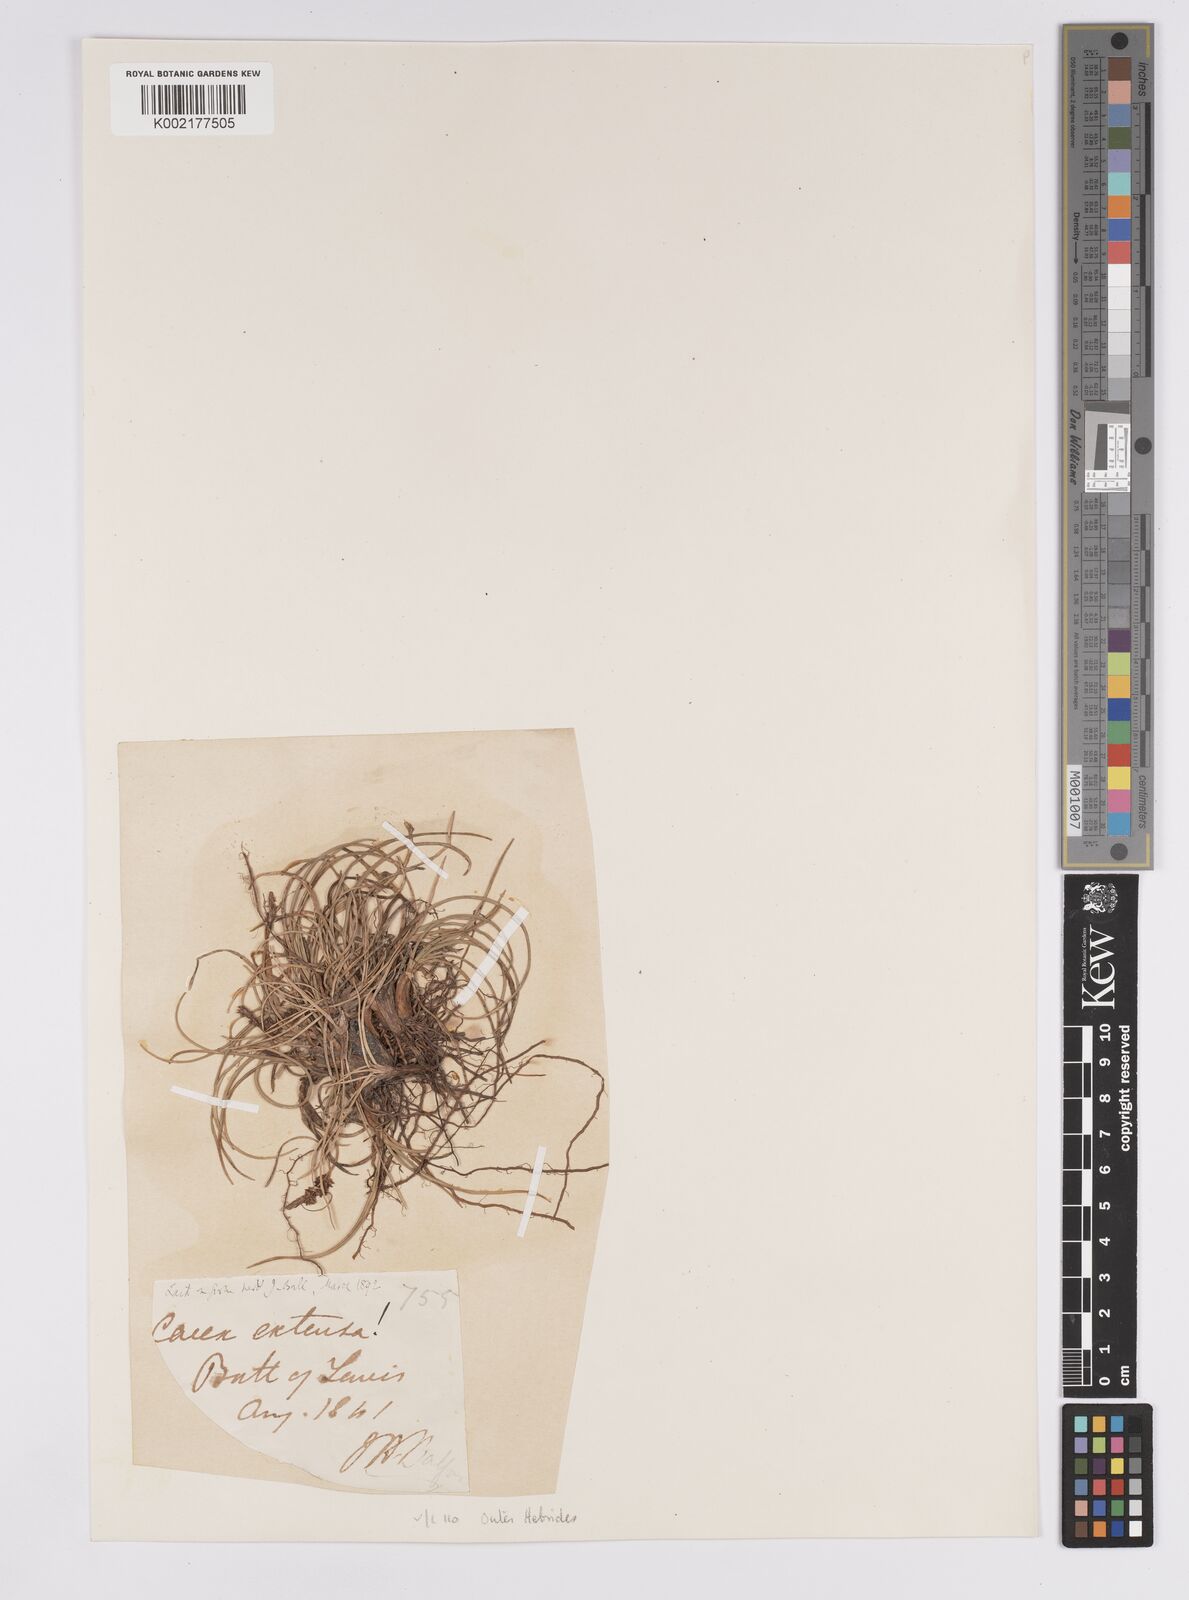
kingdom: Plantae
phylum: Tracheophyta
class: Liliopsida
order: Poales
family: Cyperaceae
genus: Carex
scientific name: Carex extensa
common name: Long-bracted sedge
